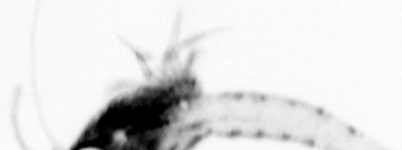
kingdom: Animalia
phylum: Arthropoda
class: Malacostraca
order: Decapoda
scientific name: Decapoda
